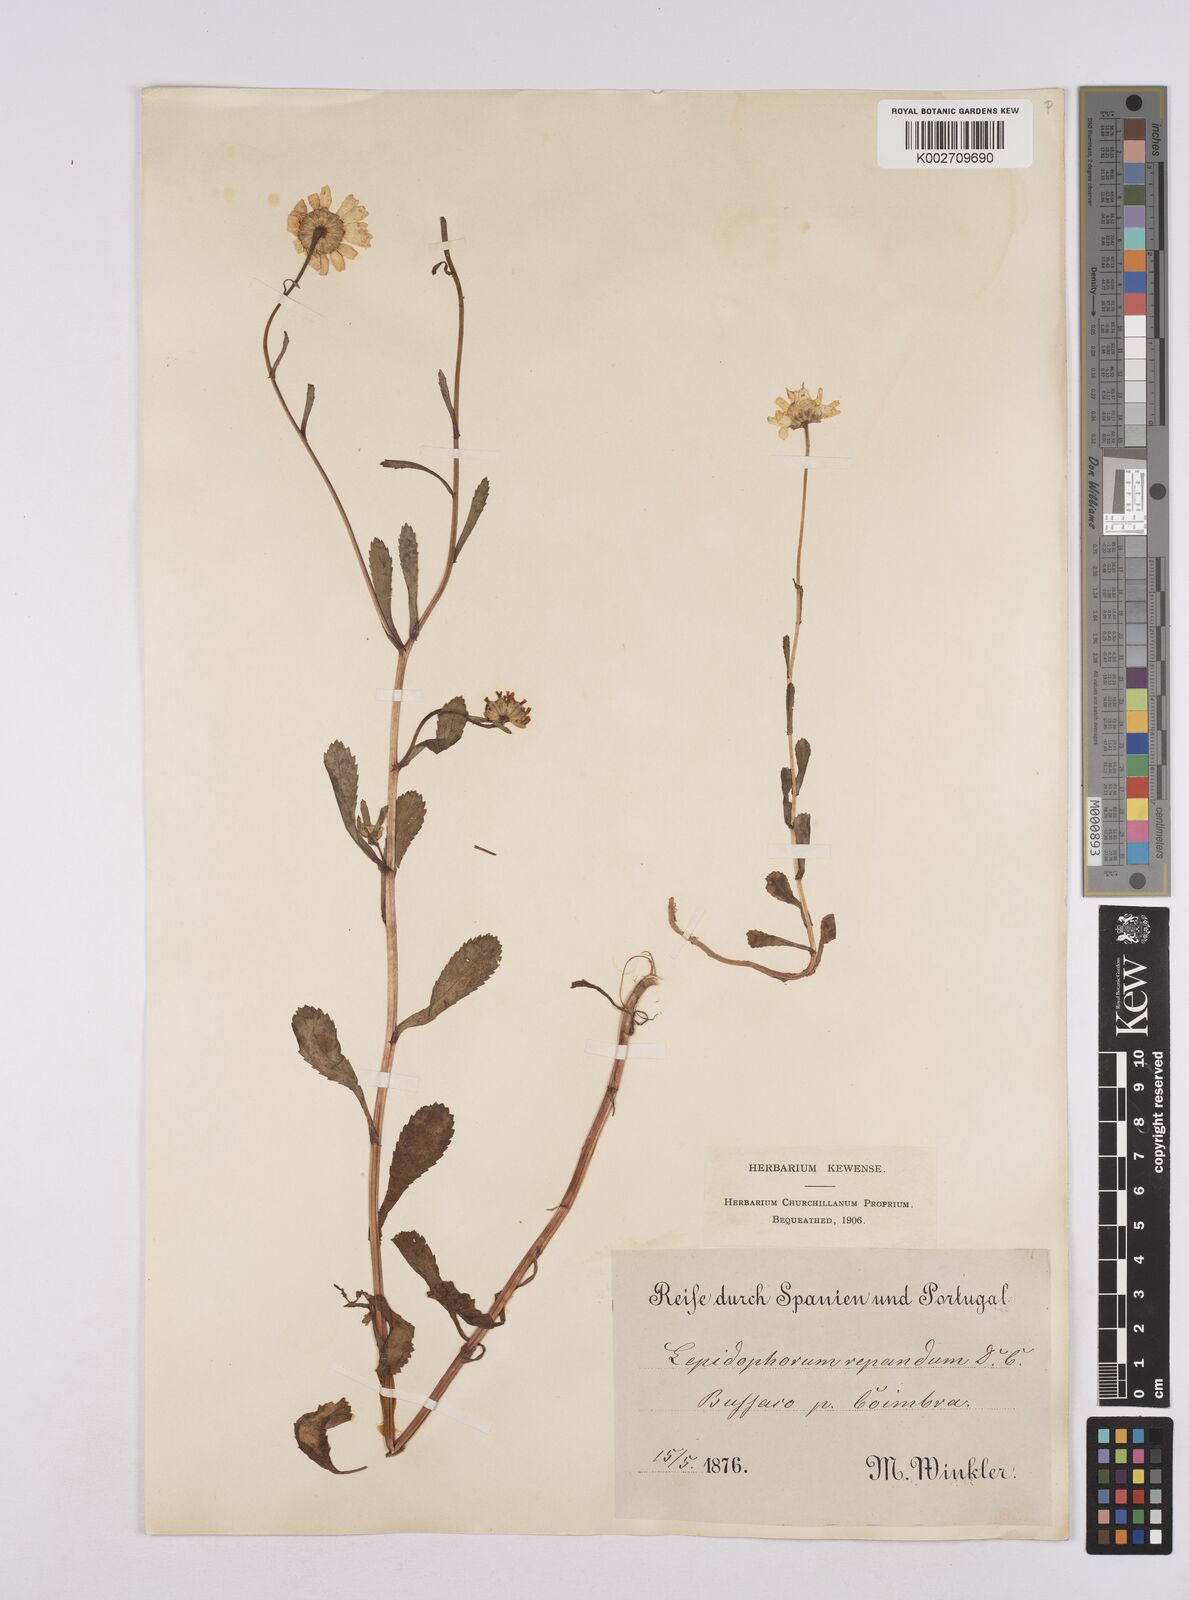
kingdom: Plantae
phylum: Tracheophyta
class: Magnoliopsida
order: Asterales
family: Asteraceae
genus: Coleostephus
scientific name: Coleostephus myconis
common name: Mediterranean marigold
